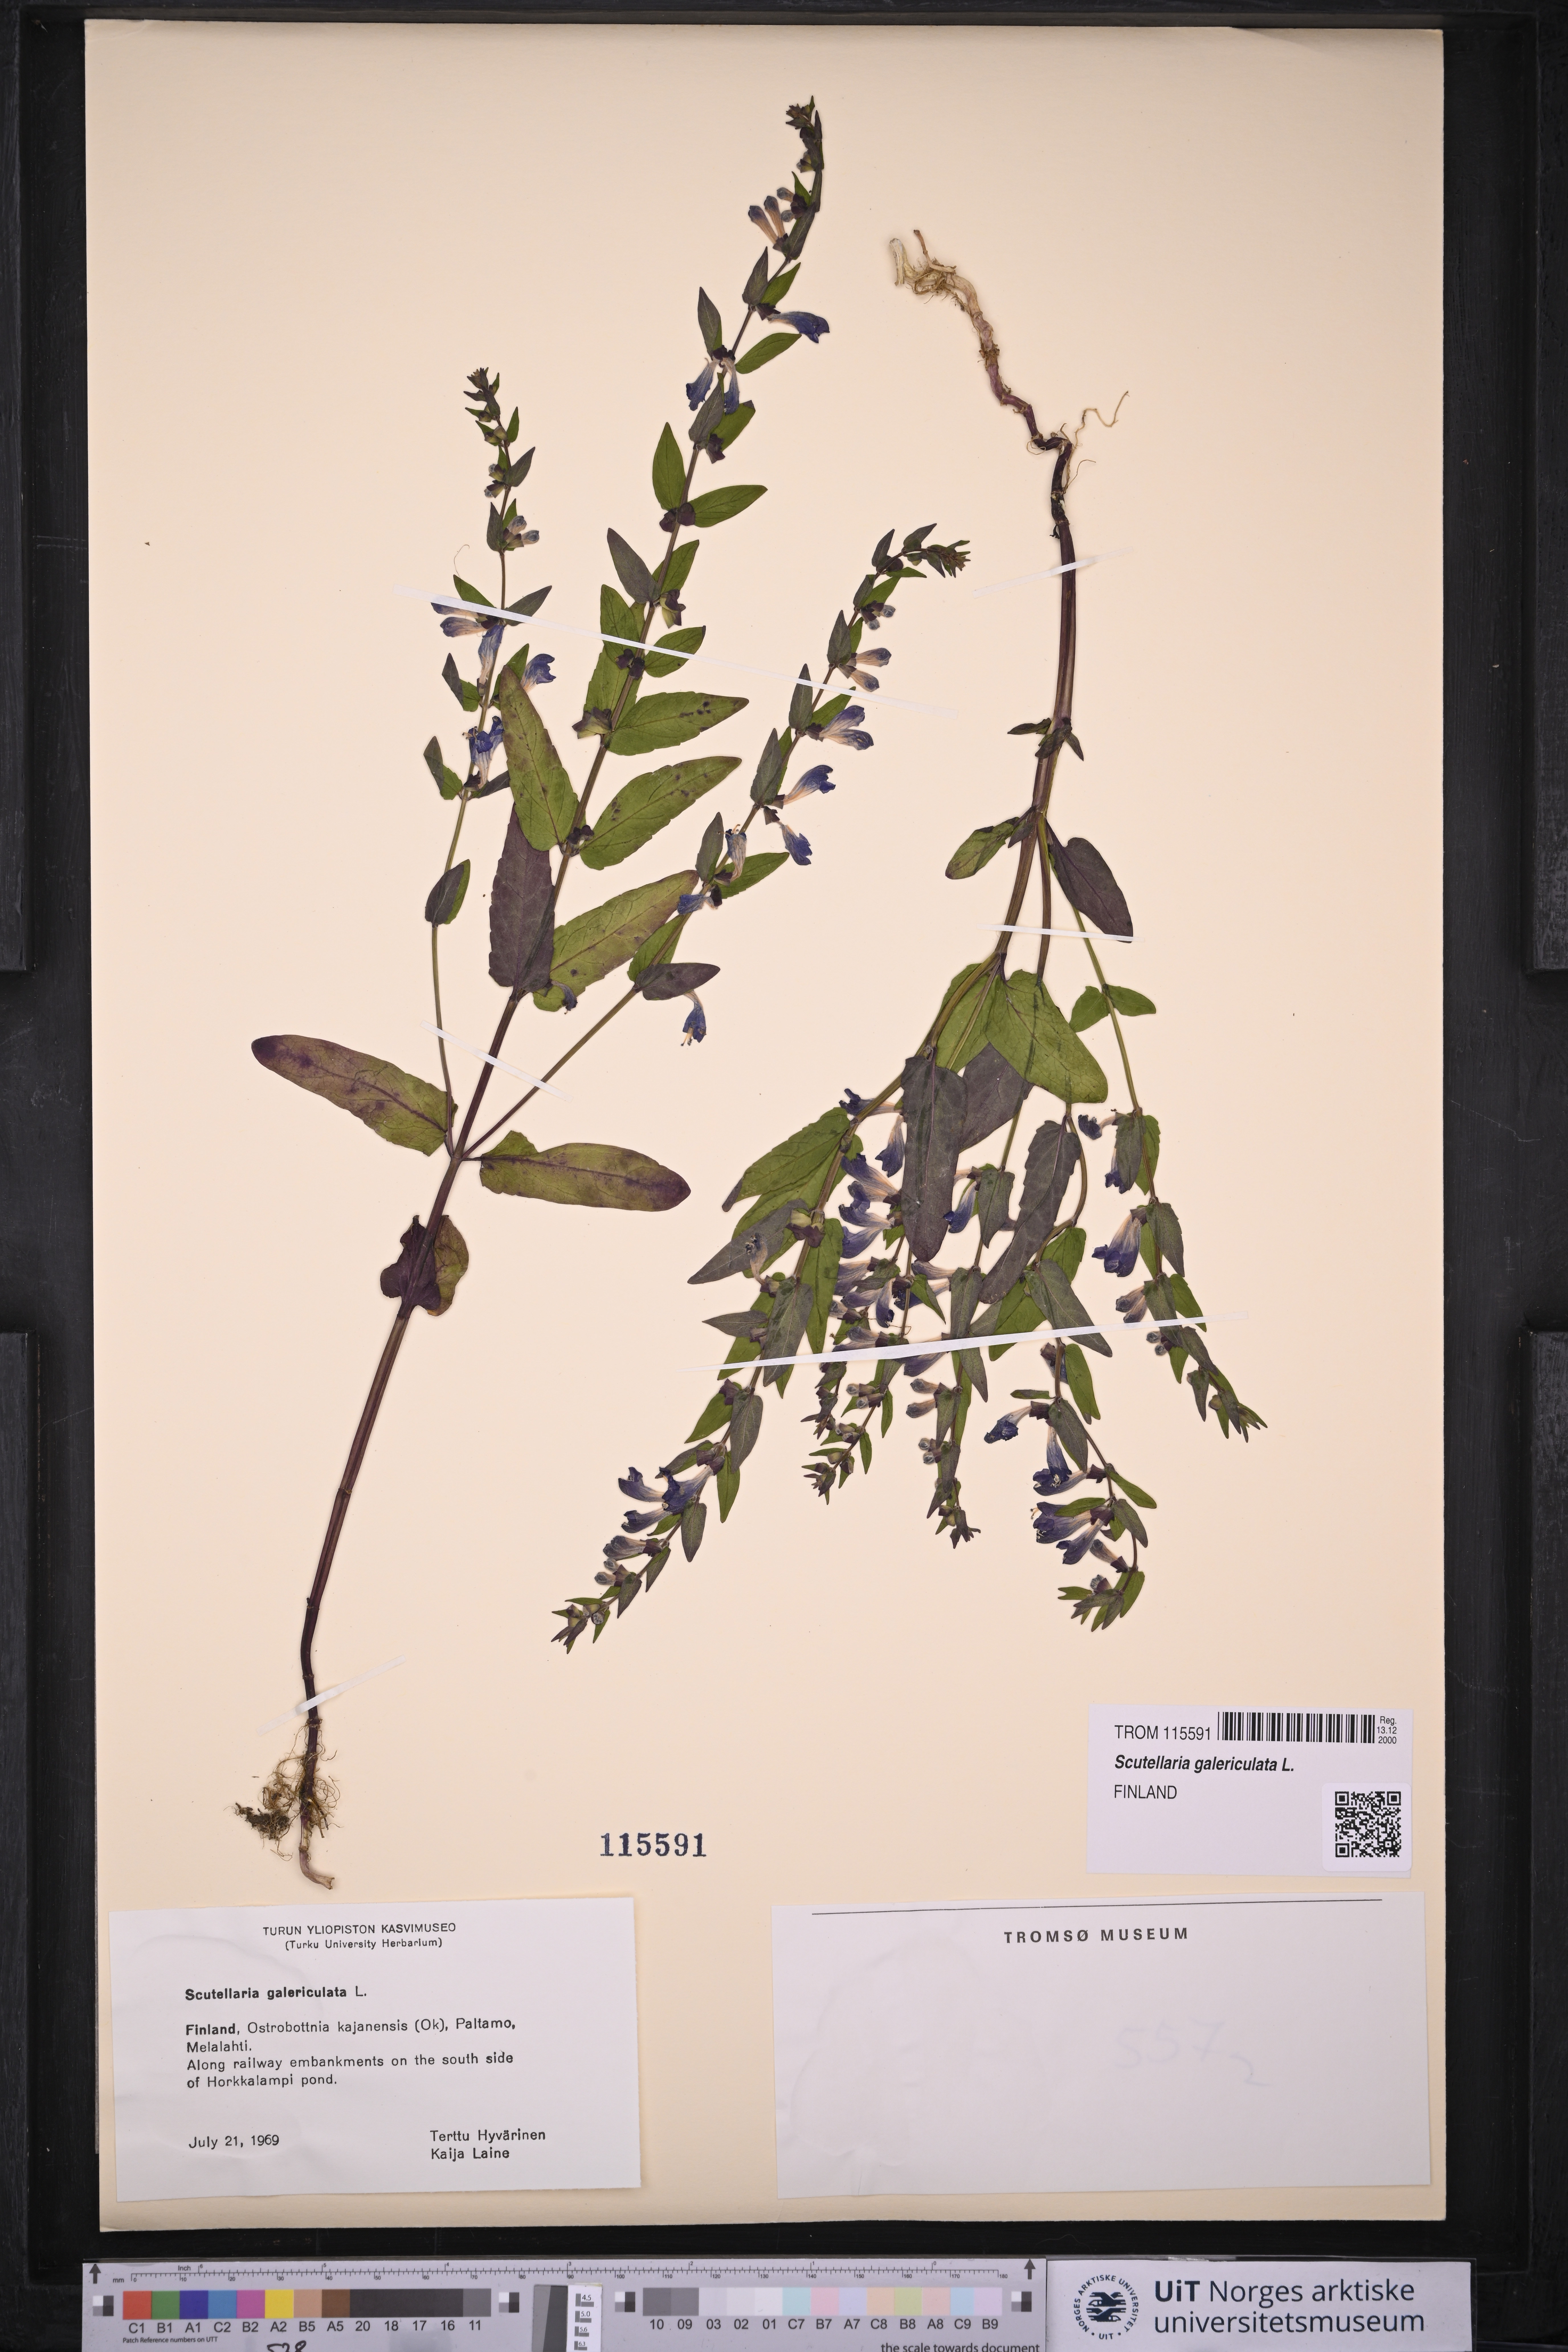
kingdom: Plantae
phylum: Tracheophyta
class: Magnoliopsida
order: Lamiales
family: Lamiaceae
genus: Scutellaria
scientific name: Scutellaria galericulata
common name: Skullcap
